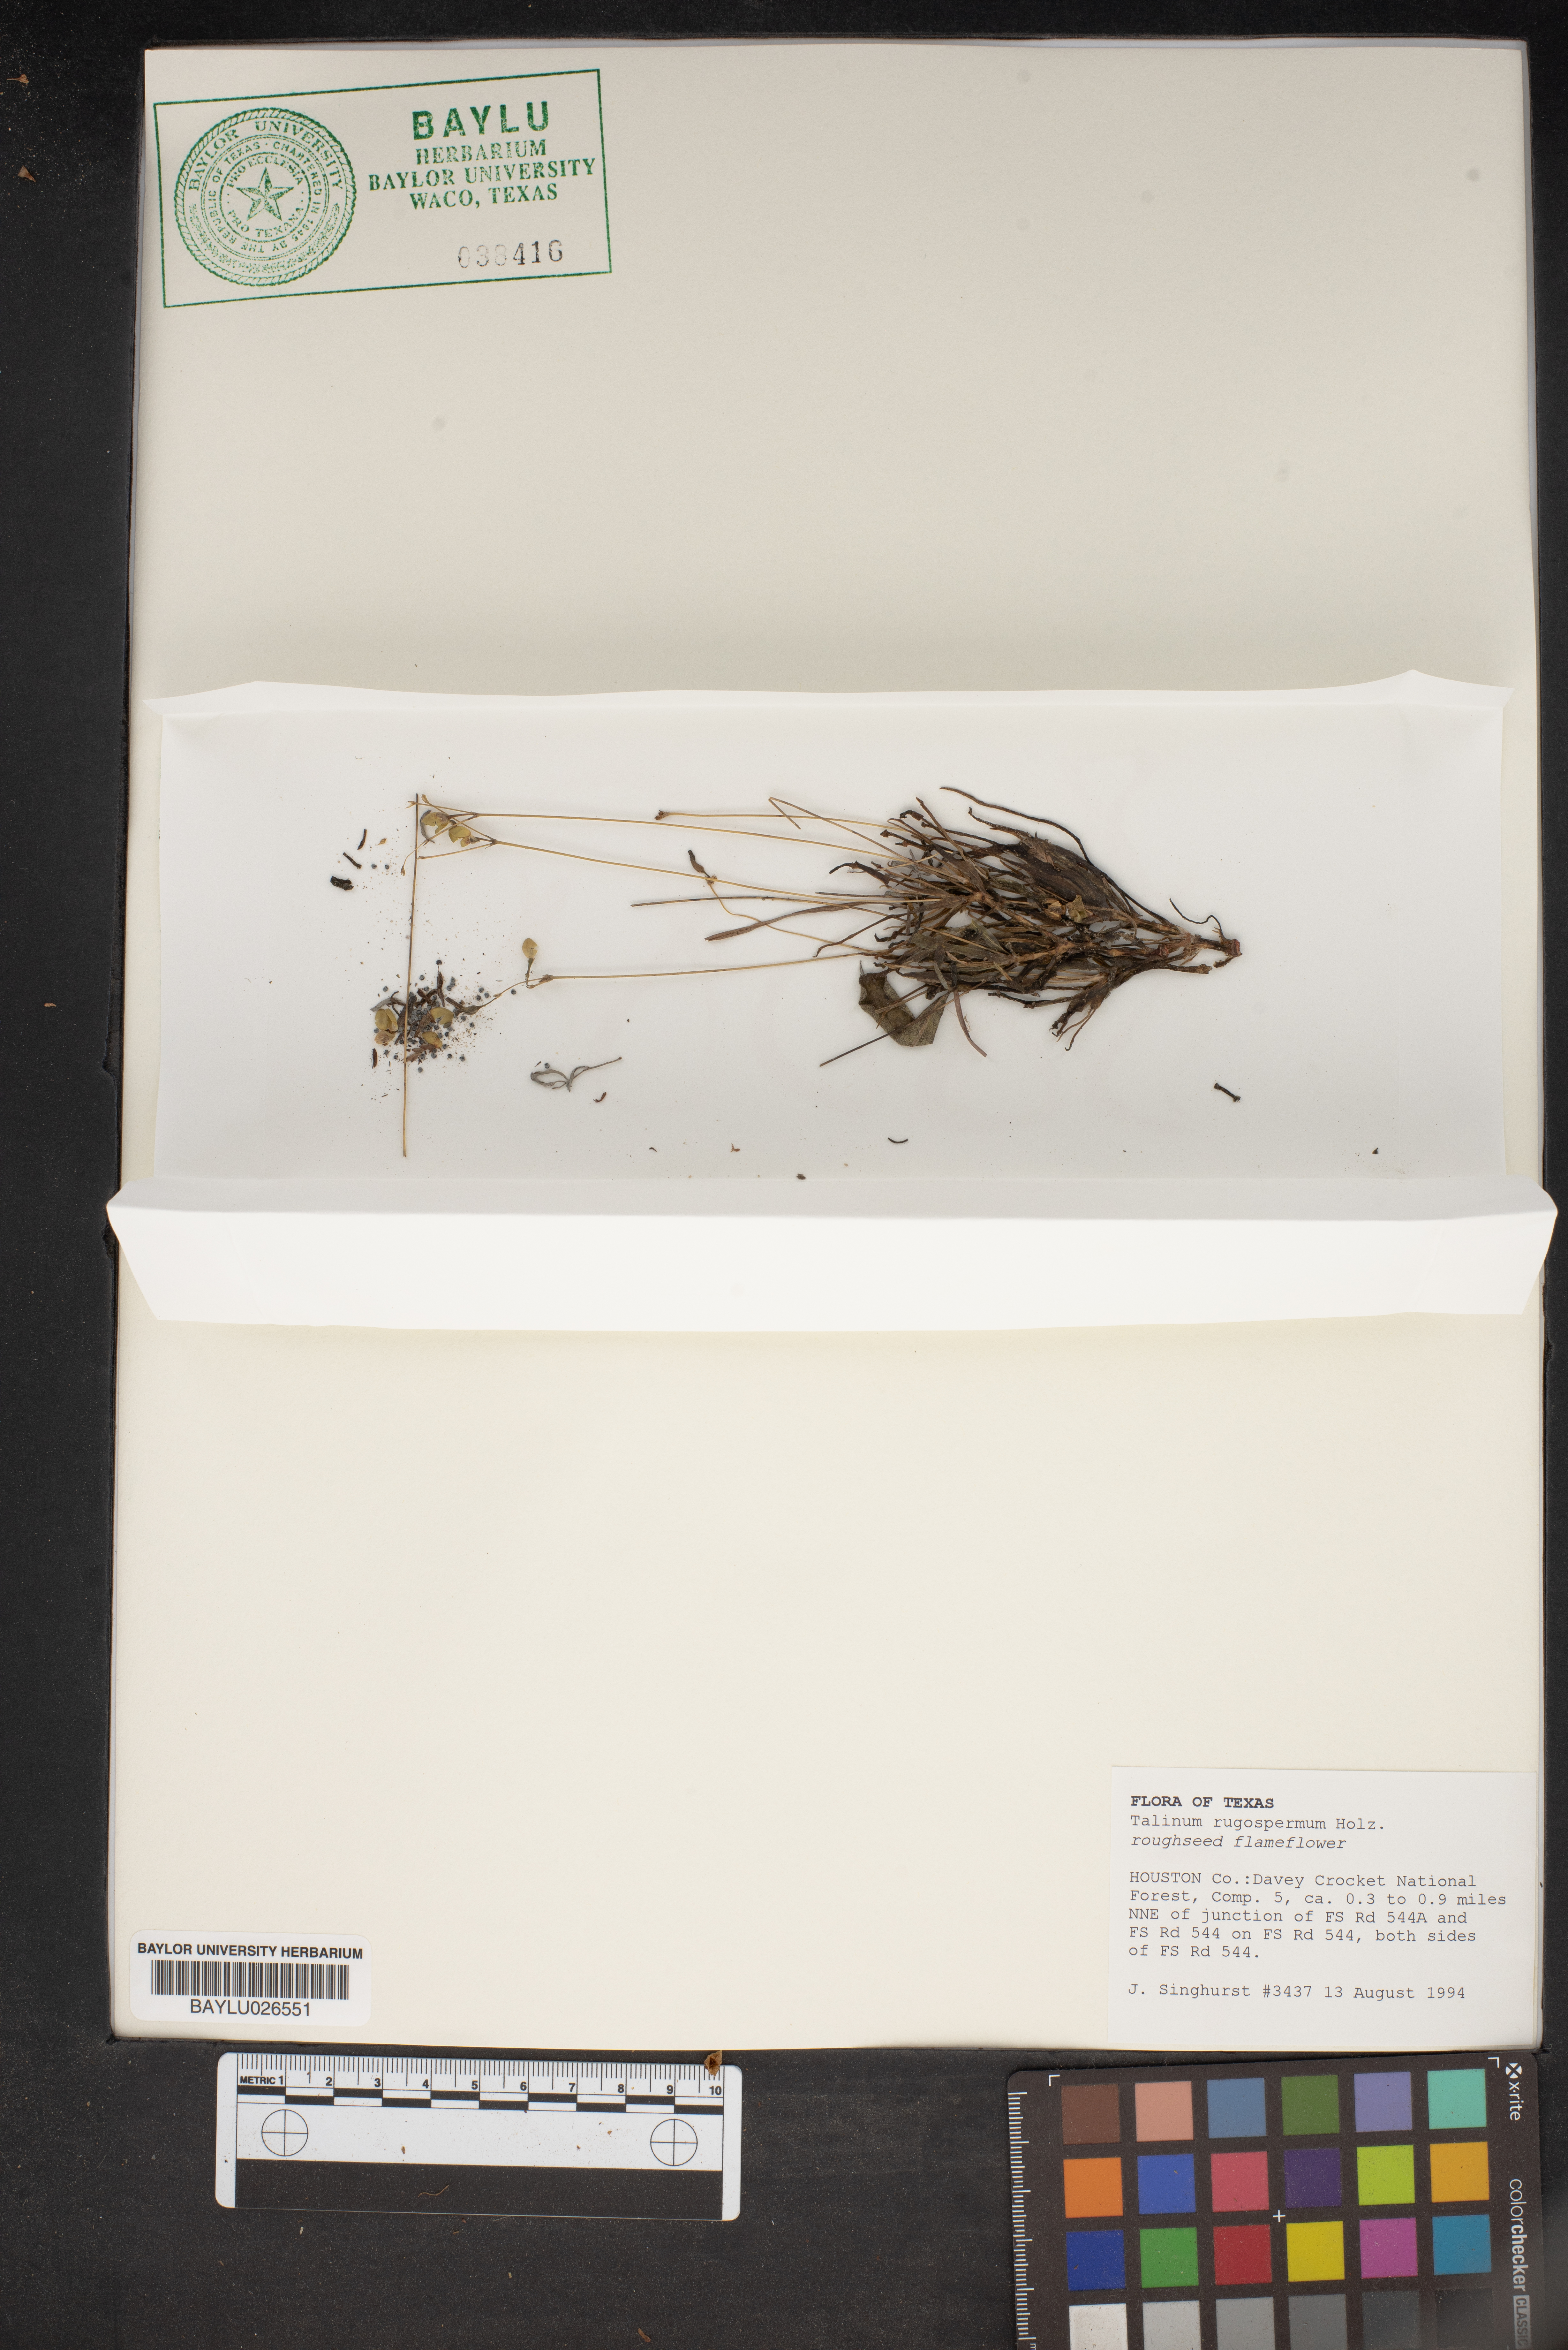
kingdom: Plantae
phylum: Tracheophyta
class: Magnoliopsida
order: Caryophyllales
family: Montiaceae
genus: Phemeranthus
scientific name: Phemeranthus rugospermus
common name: Prairie fameflower
